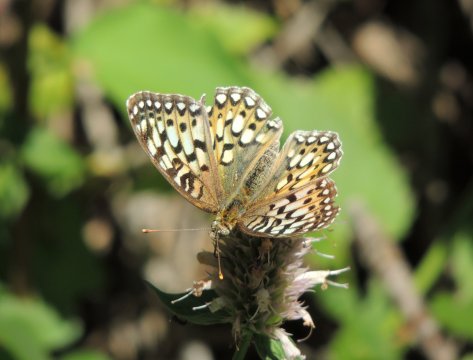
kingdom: Animalia
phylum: Arthropoda
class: Insecta
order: Lepidoptera
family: Nymphalidae
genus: Speyeria
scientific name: Speyeria callippe
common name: Callippe Fritillary
